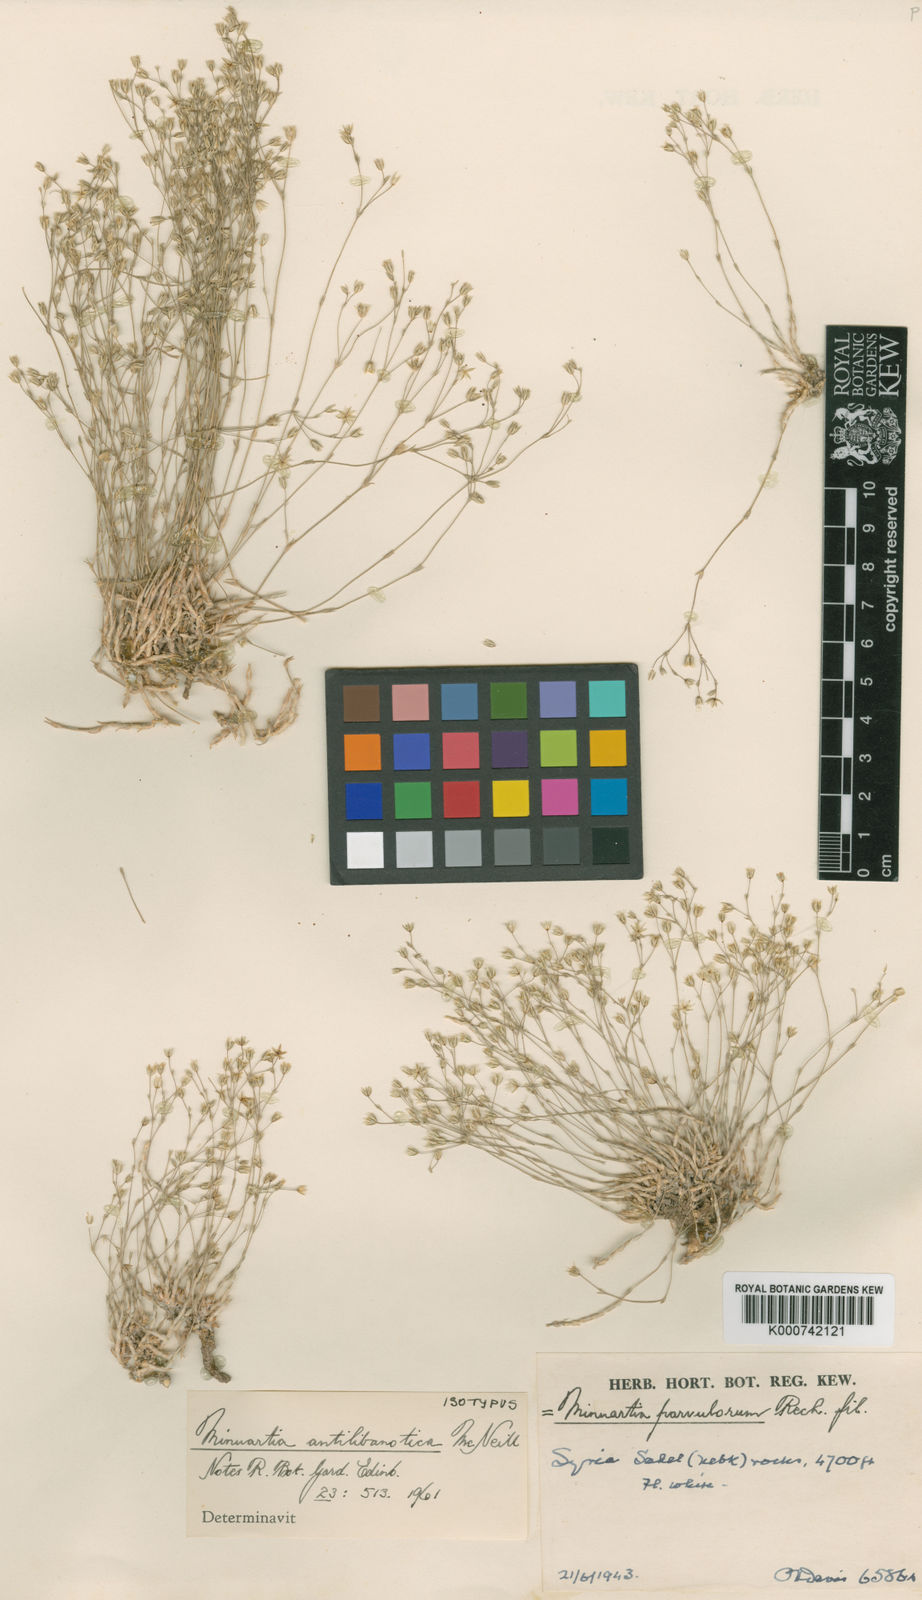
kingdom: Plantae
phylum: Tracheophyta
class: Magnoliopsida
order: Caryophyllales
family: Caryophyllaceae
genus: Minuartia
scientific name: Minuartia parvulorum
